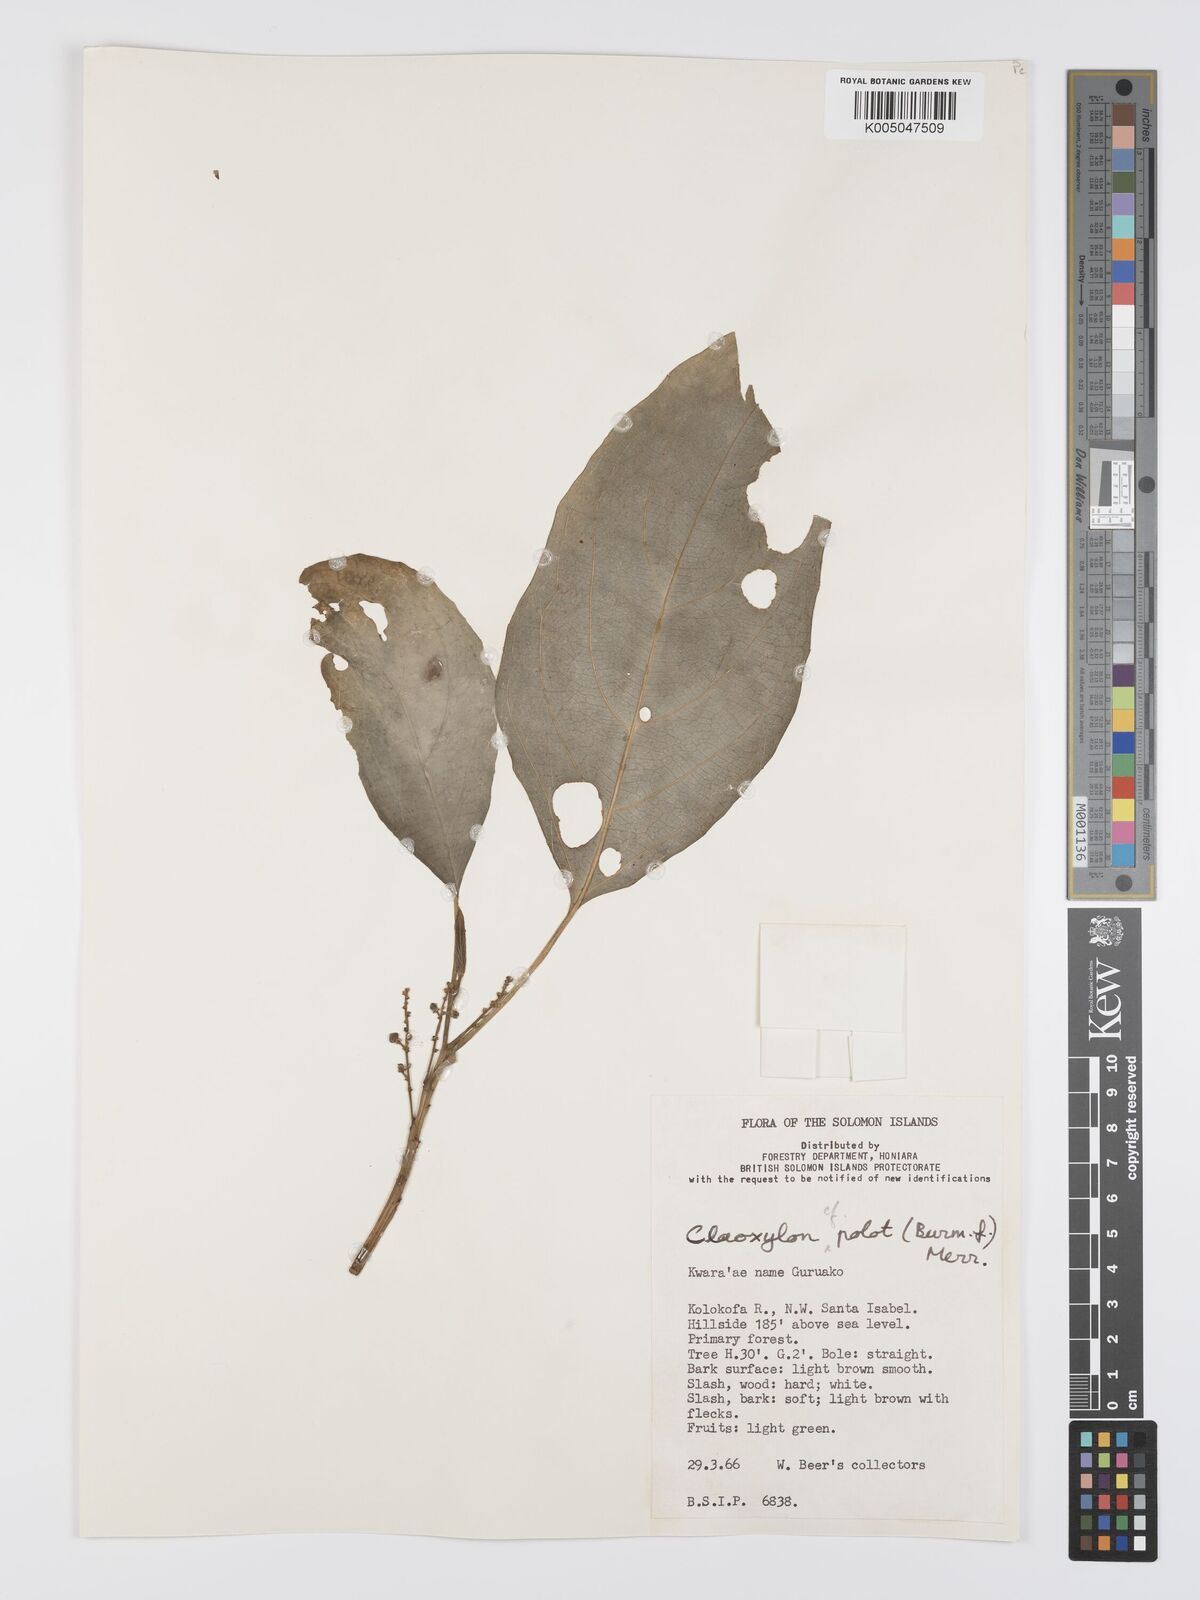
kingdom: Plantae
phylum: Tracheophyta
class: Magnoliopsida
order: Malpighiales
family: Euphorbiaceae
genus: Claoxylon
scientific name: Claoxylon carolinianum
